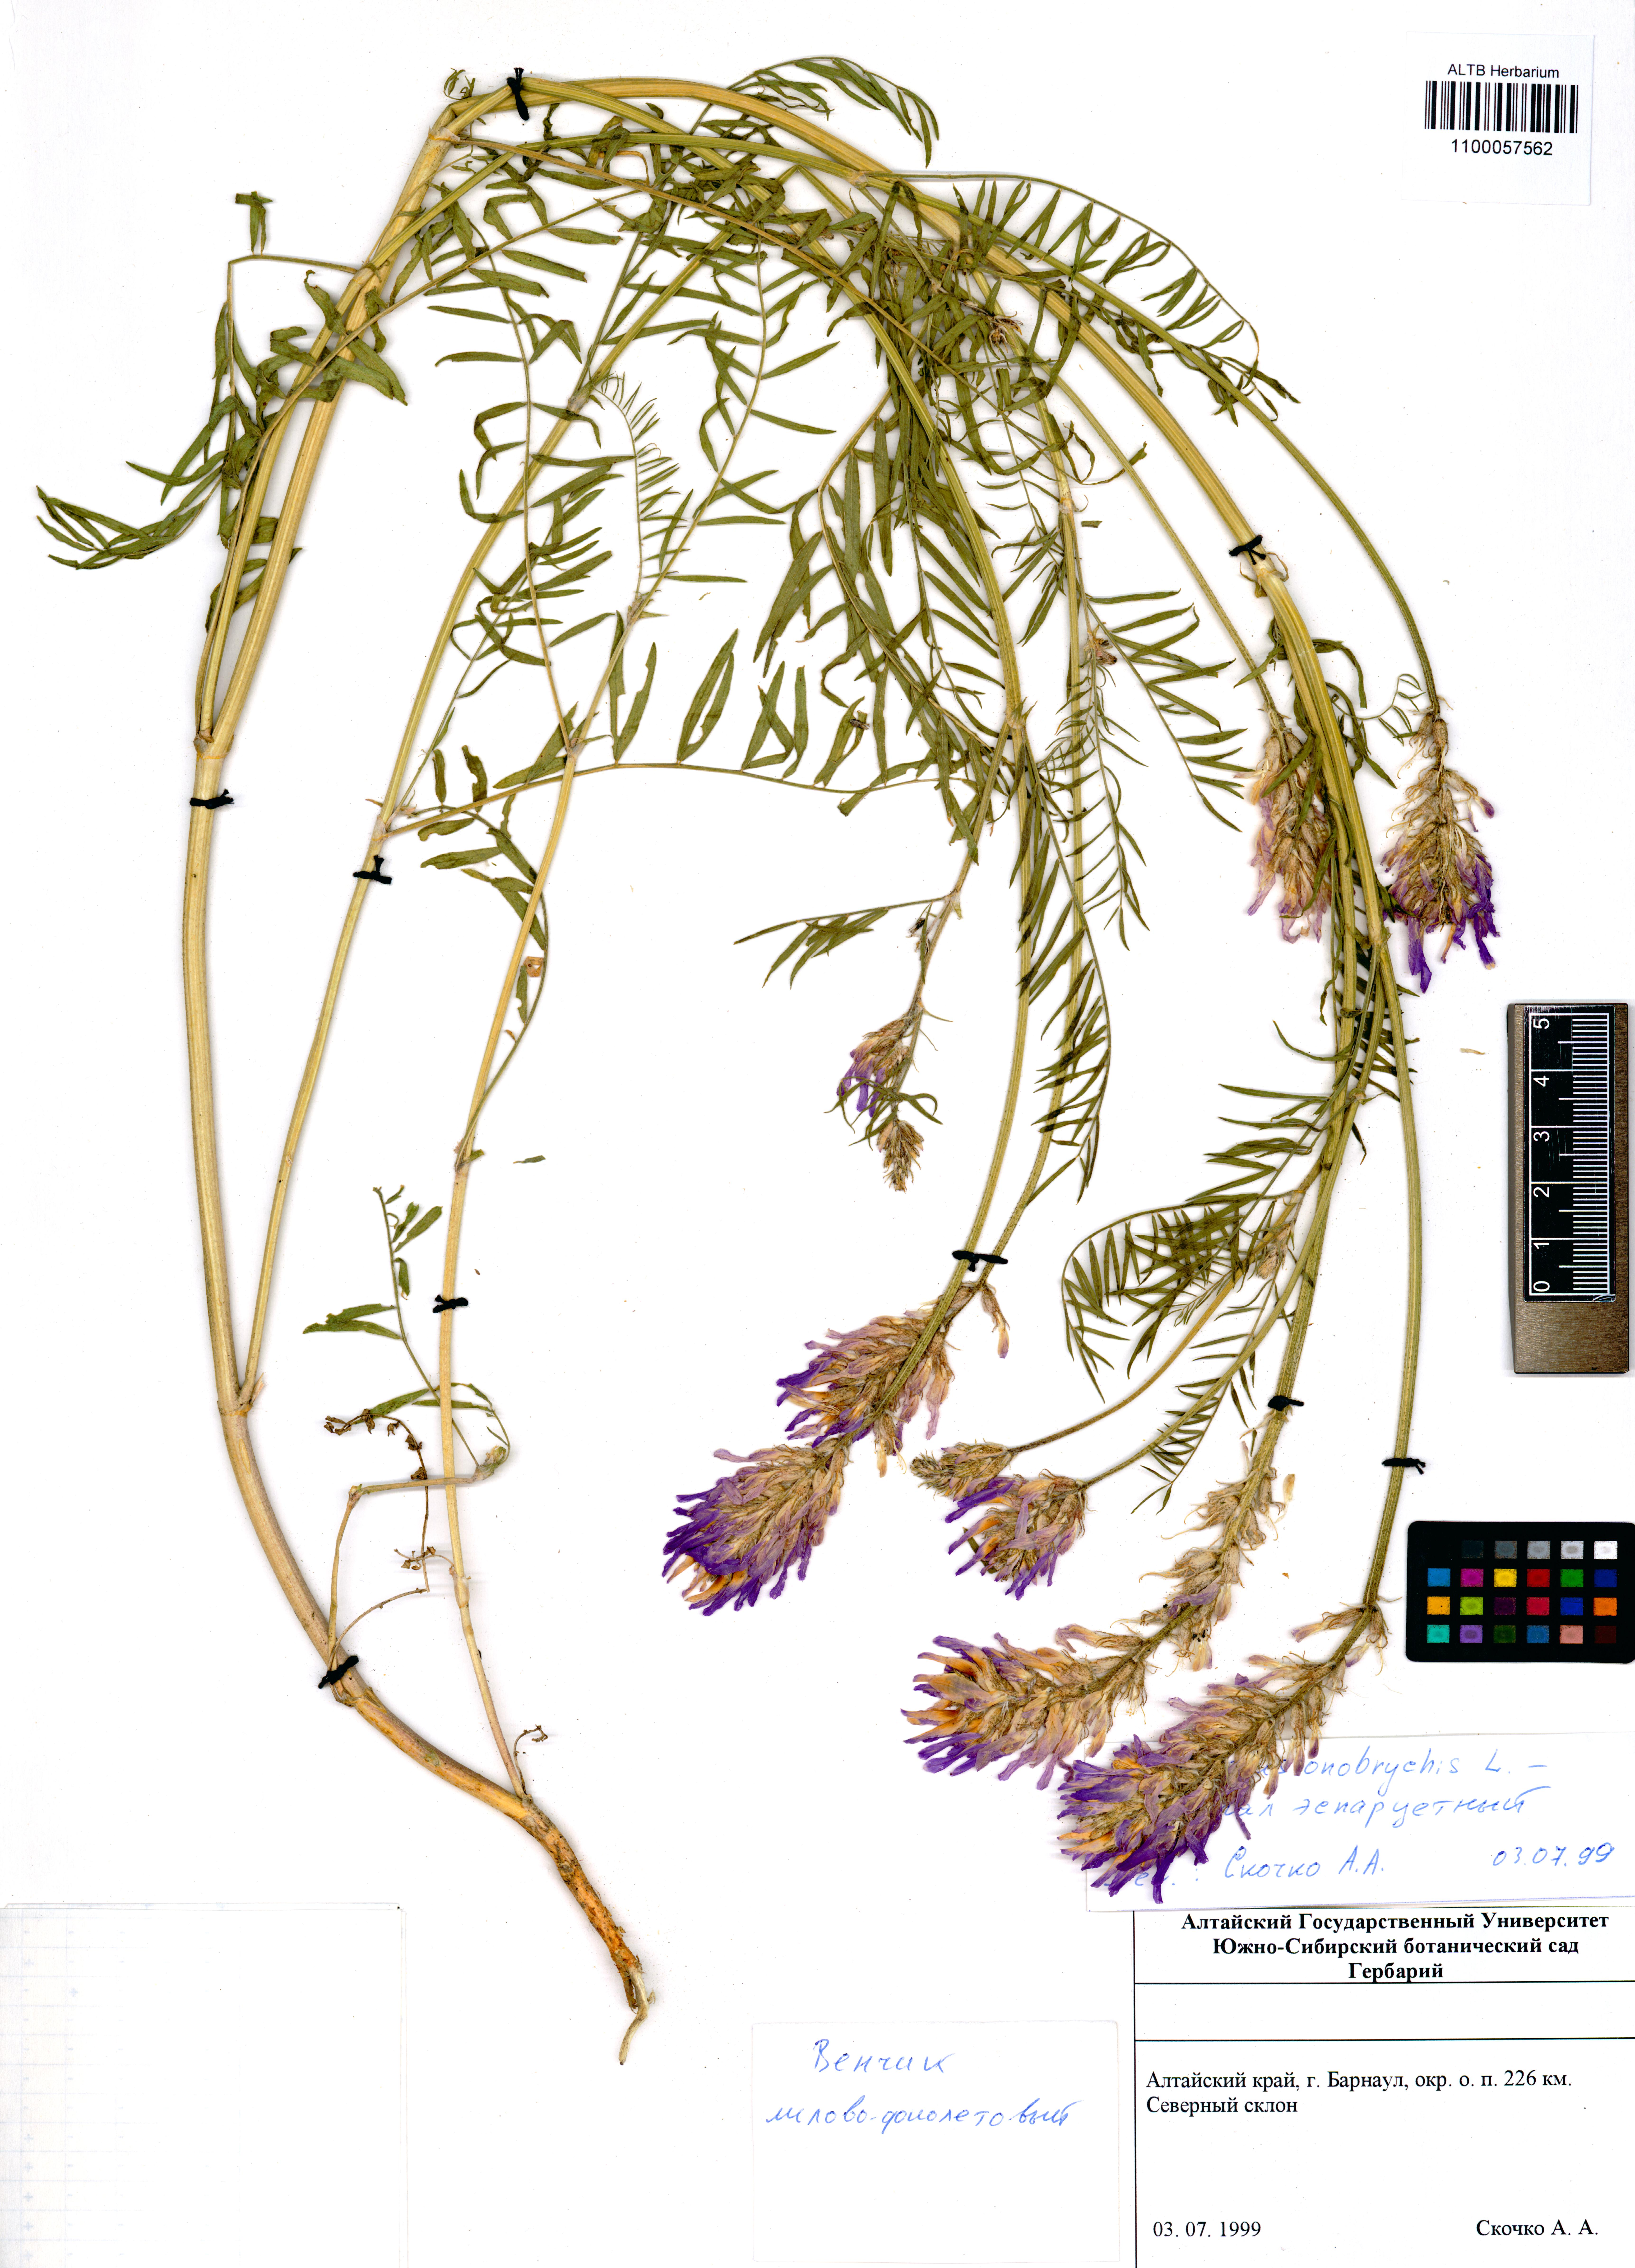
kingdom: Plantae
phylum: Tracheophyta
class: Magnoliopsida
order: Fabales
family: Fabaceae
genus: Astragalus
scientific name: Astragalus onobrychis
